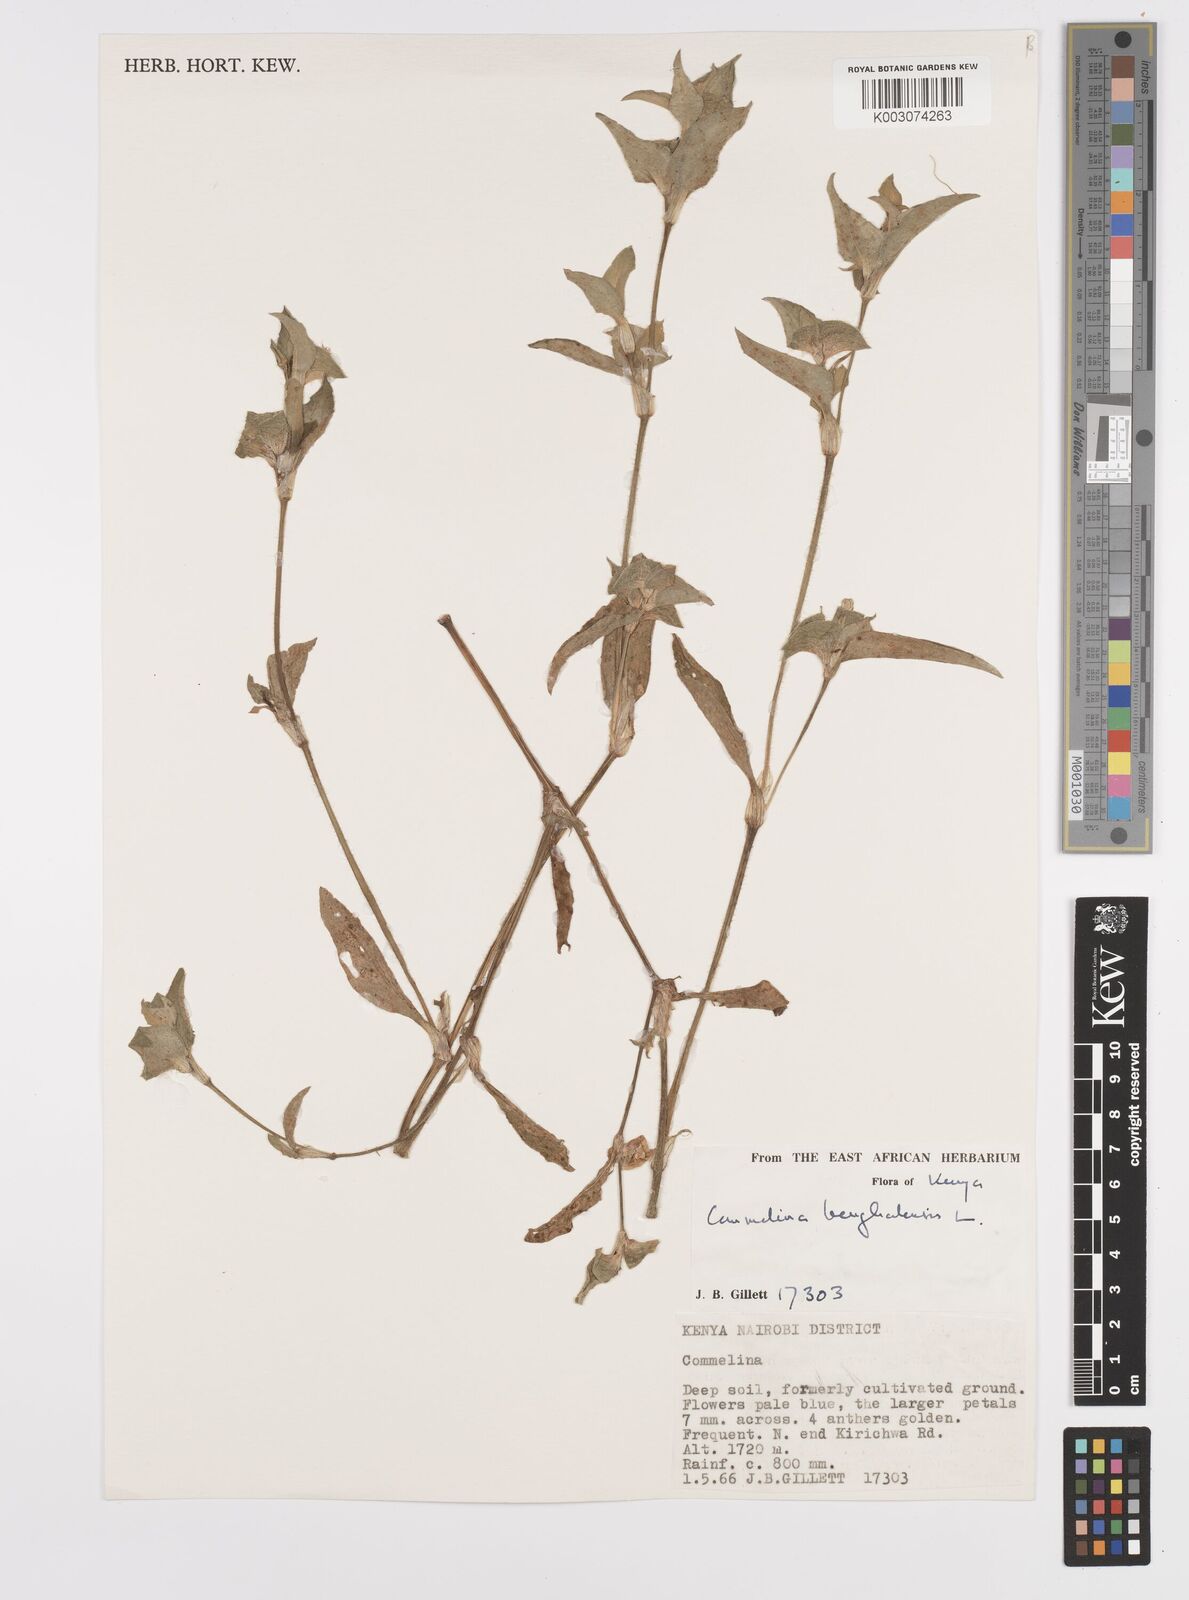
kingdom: Plantae
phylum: Tracheophyta
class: Liliopsida
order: Commelinales
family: Commelinaceae
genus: Commelina
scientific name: Commelina benghalensis
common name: Jio
